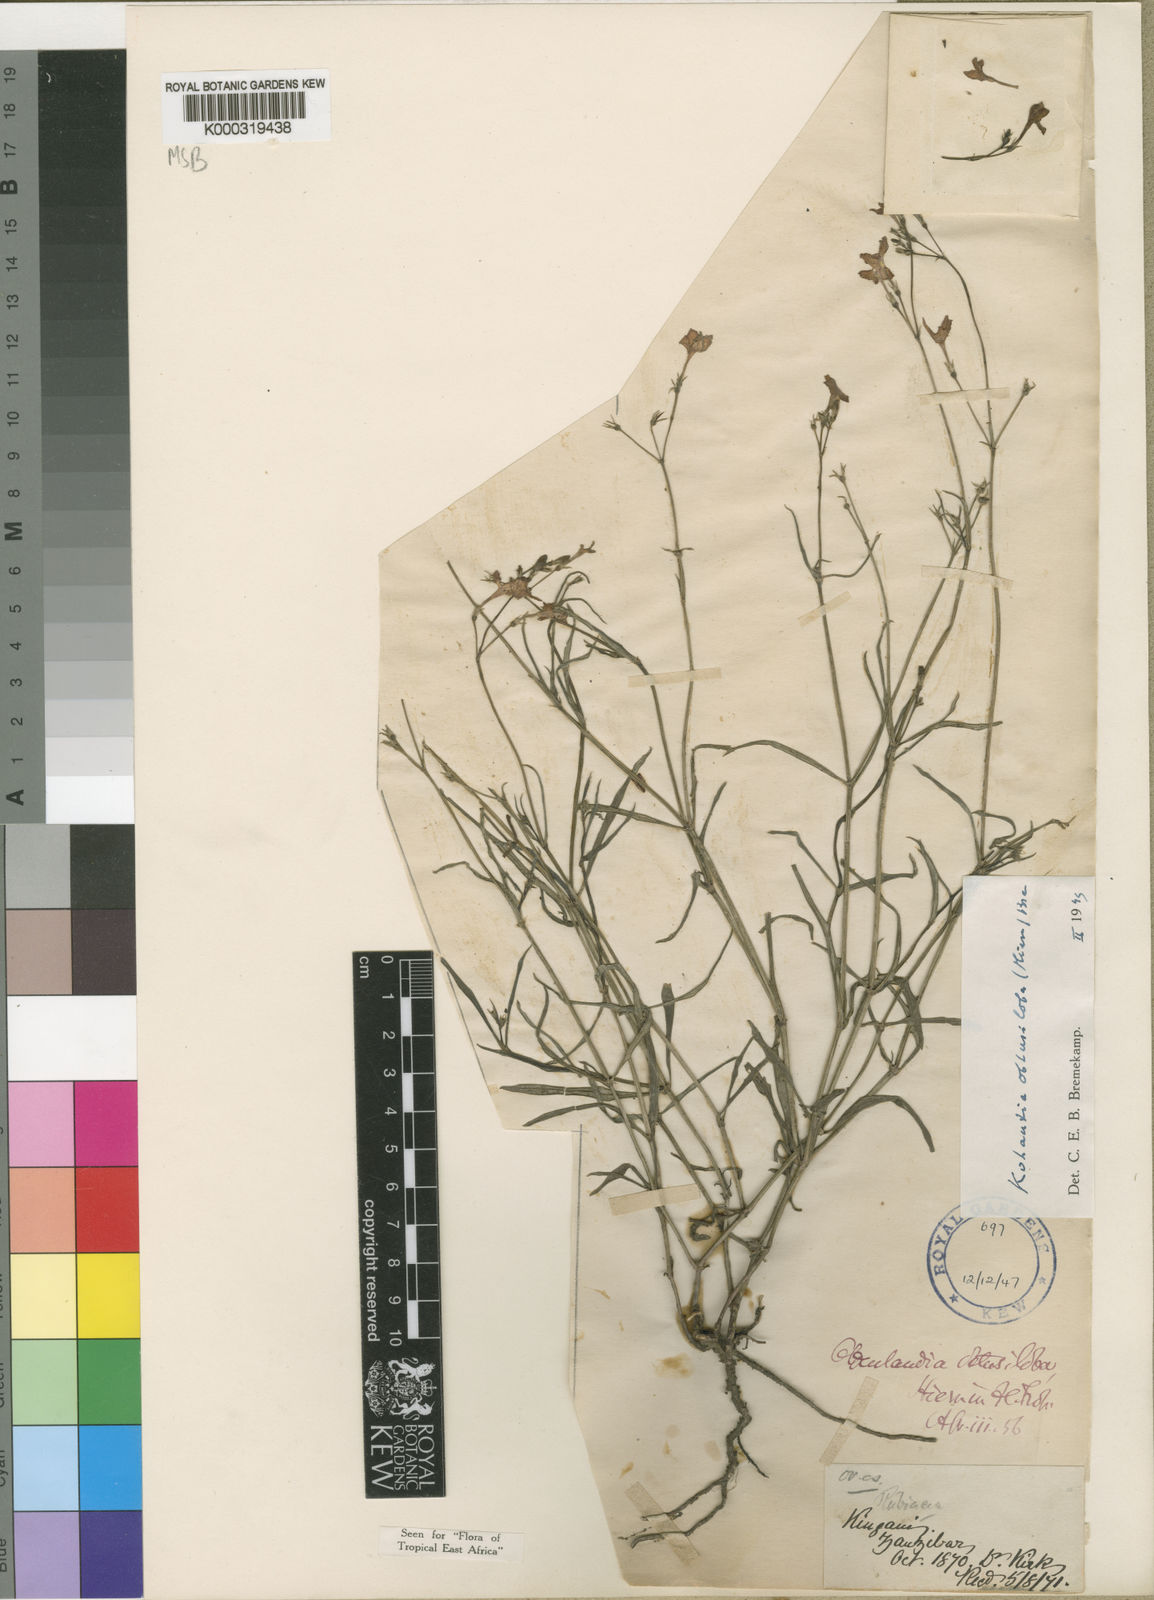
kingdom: Plantae
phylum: Tracheophyta
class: Magnoliopsida
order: Gentianales
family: Rubiaceae
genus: Cordylostigma
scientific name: Cordylostigma obtusilobum
